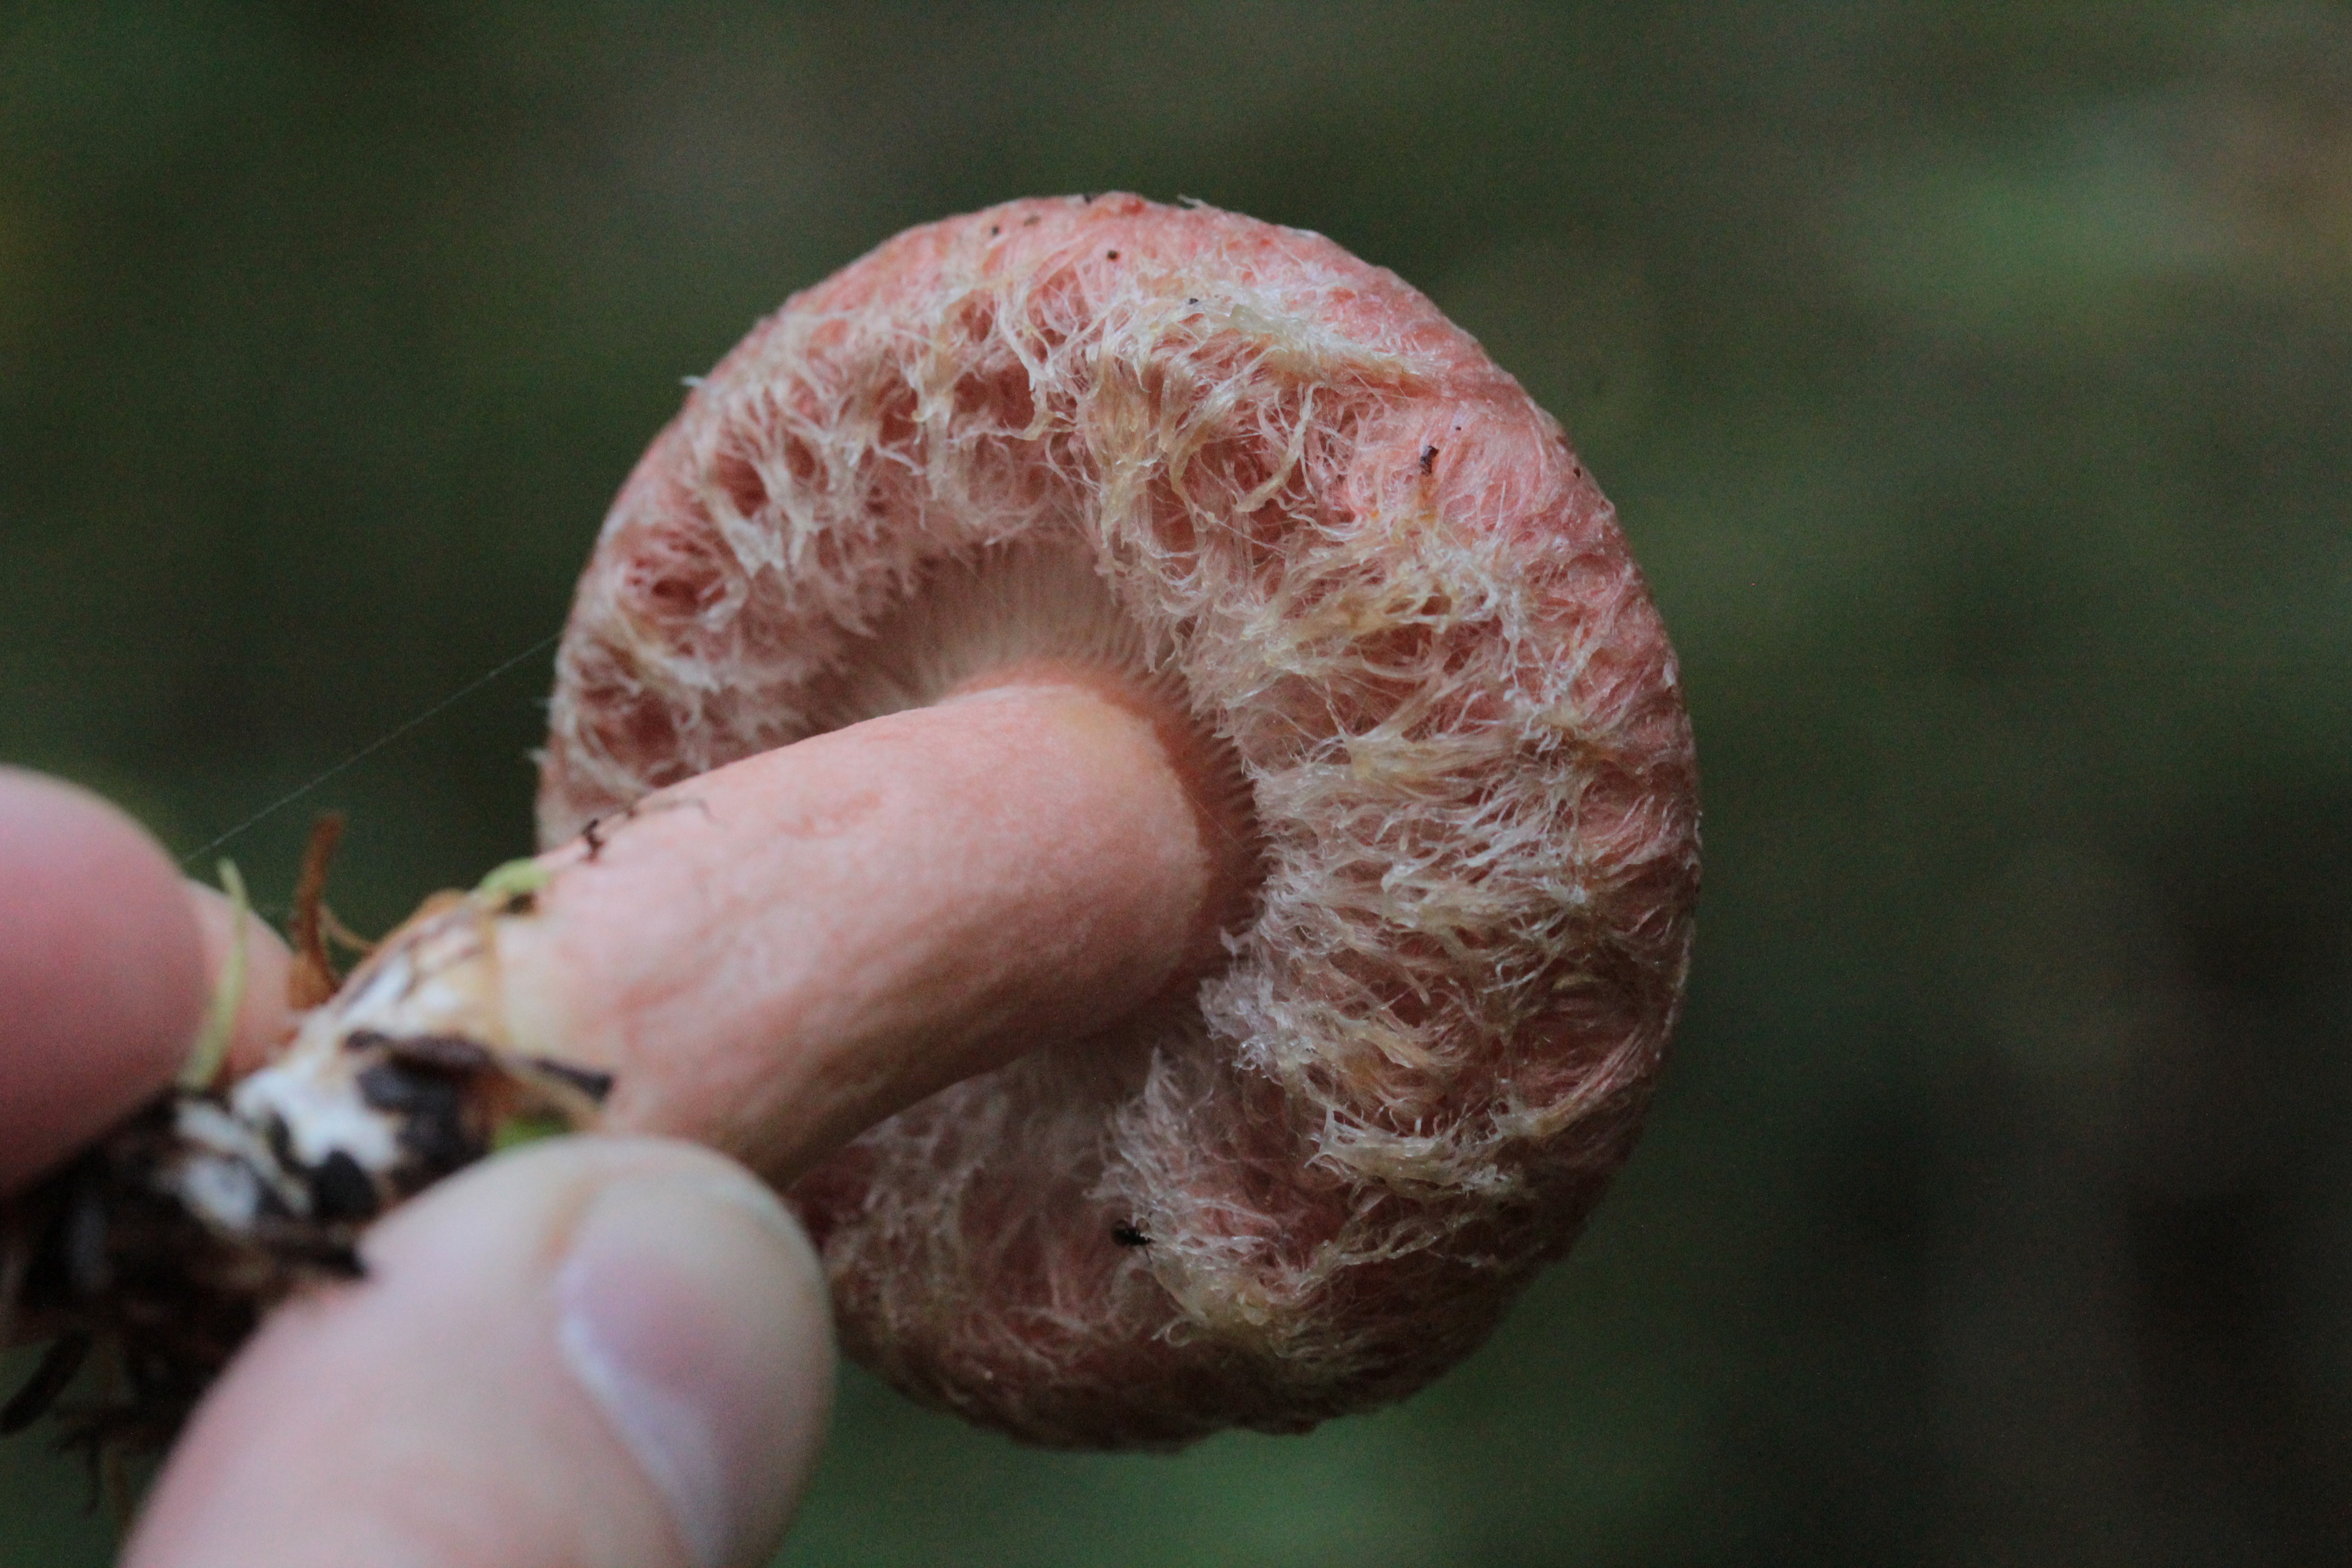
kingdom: Fungi
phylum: Basidiomycota
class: Agaricomycetes
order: Russulales
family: Russulaceae
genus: Lactarius
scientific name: Lactarius torminosus
